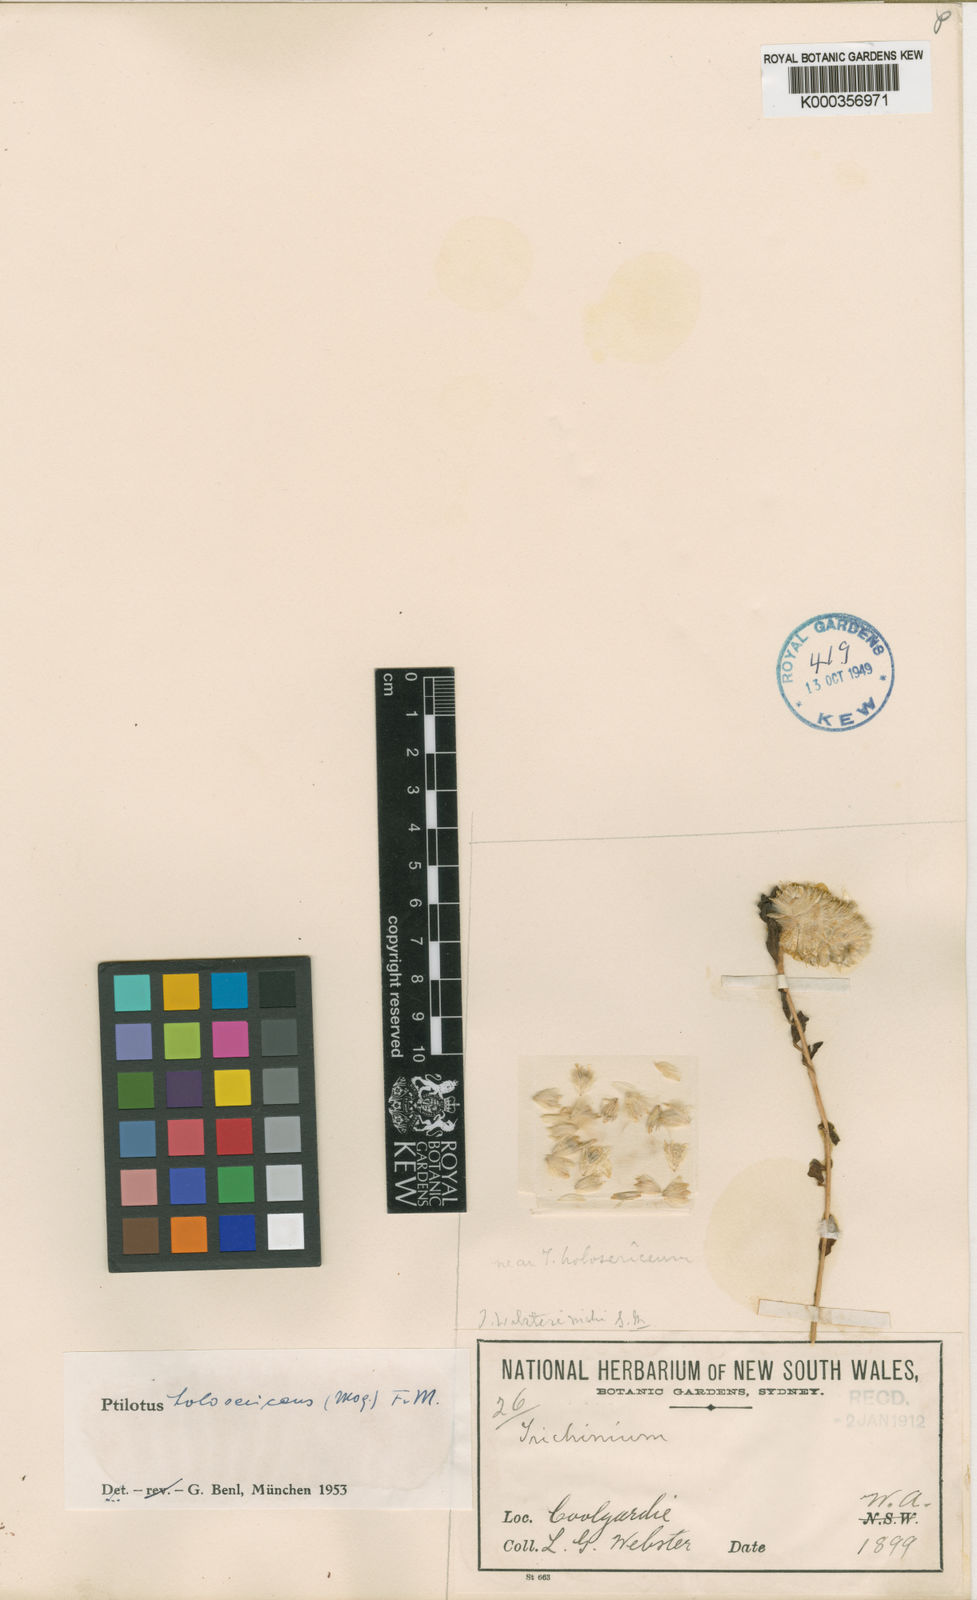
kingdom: Plantae
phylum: Tracheophyta
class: Magnoliopsida
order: Caryophyllales
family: Amaranthaceae
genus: Ptilotus
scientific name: Ptilotus holosericeus
